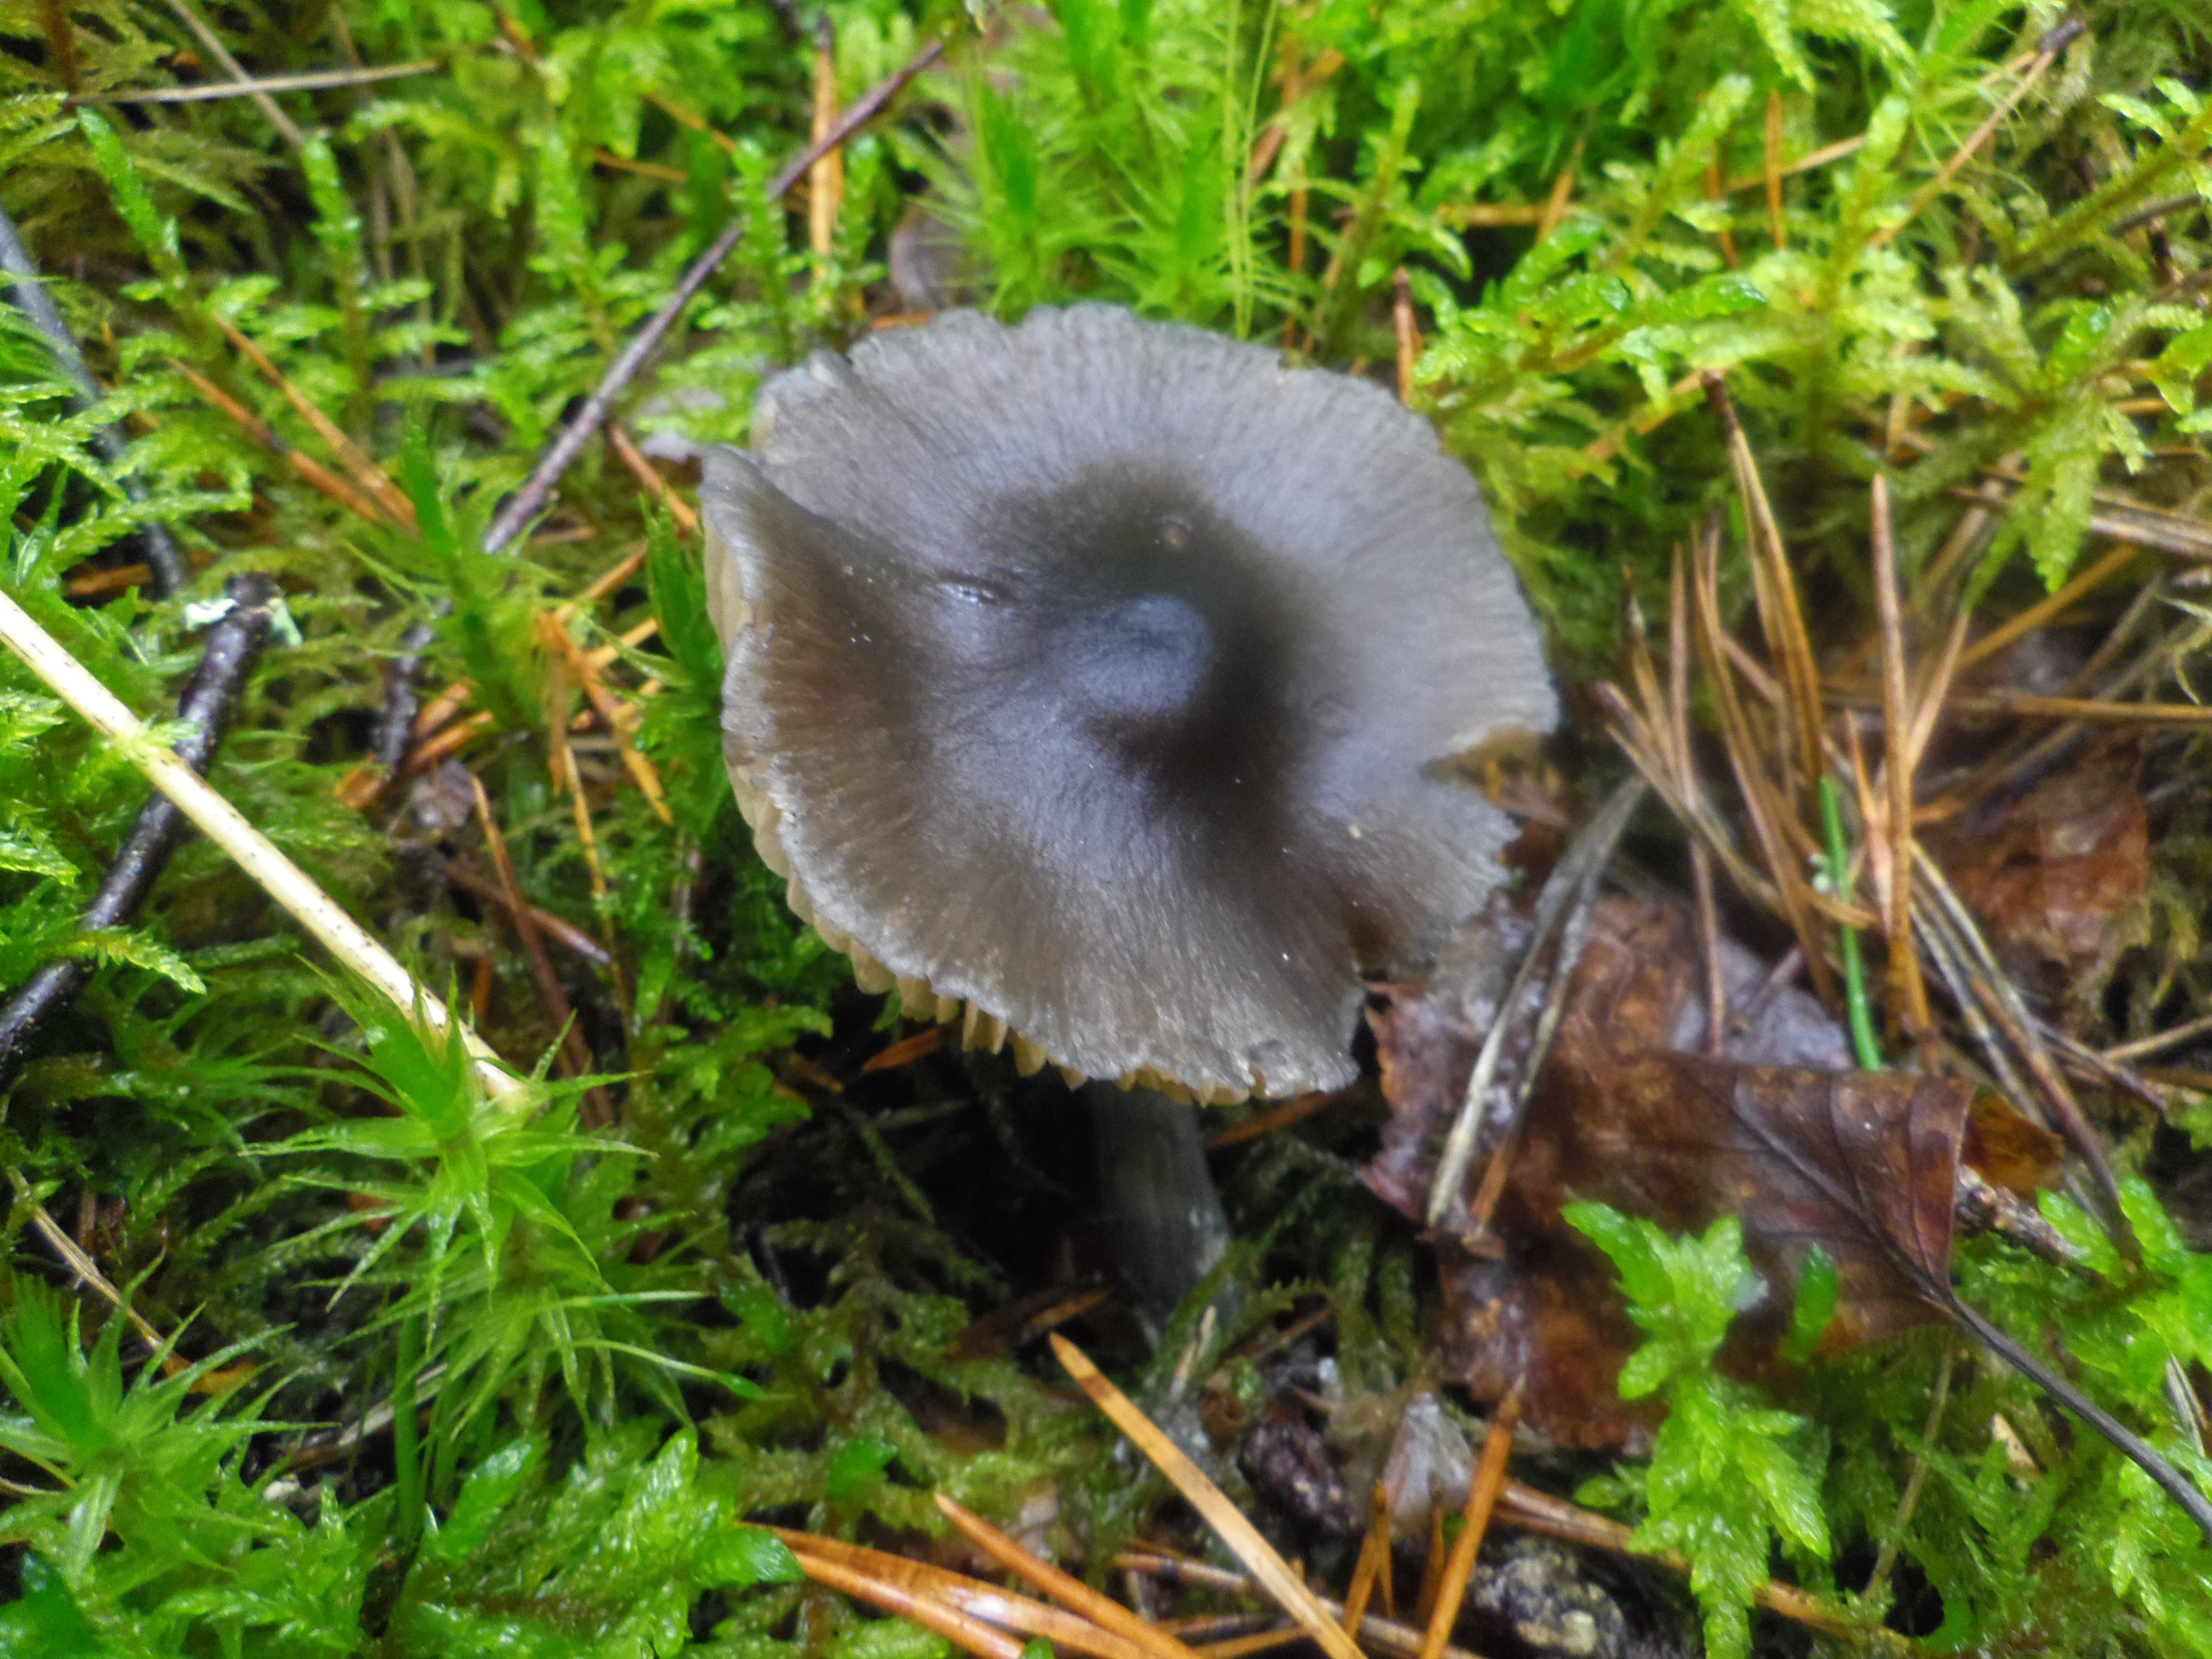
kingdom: Fungi
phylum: Basidiomycota
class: Agaricomycetes
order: Agaricales
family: Entolomataceae
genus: Entocybe
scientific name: Entocybe nitida
